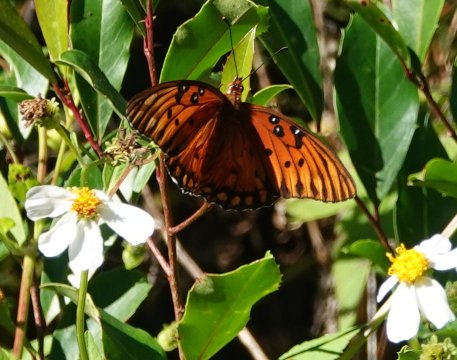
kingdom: Animalia
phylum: Arthropoda
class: Insecta
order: Lepidoptera
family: Nymphalidae
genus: Dione
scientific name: Dione vanillae
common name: Gulf Fritillary
